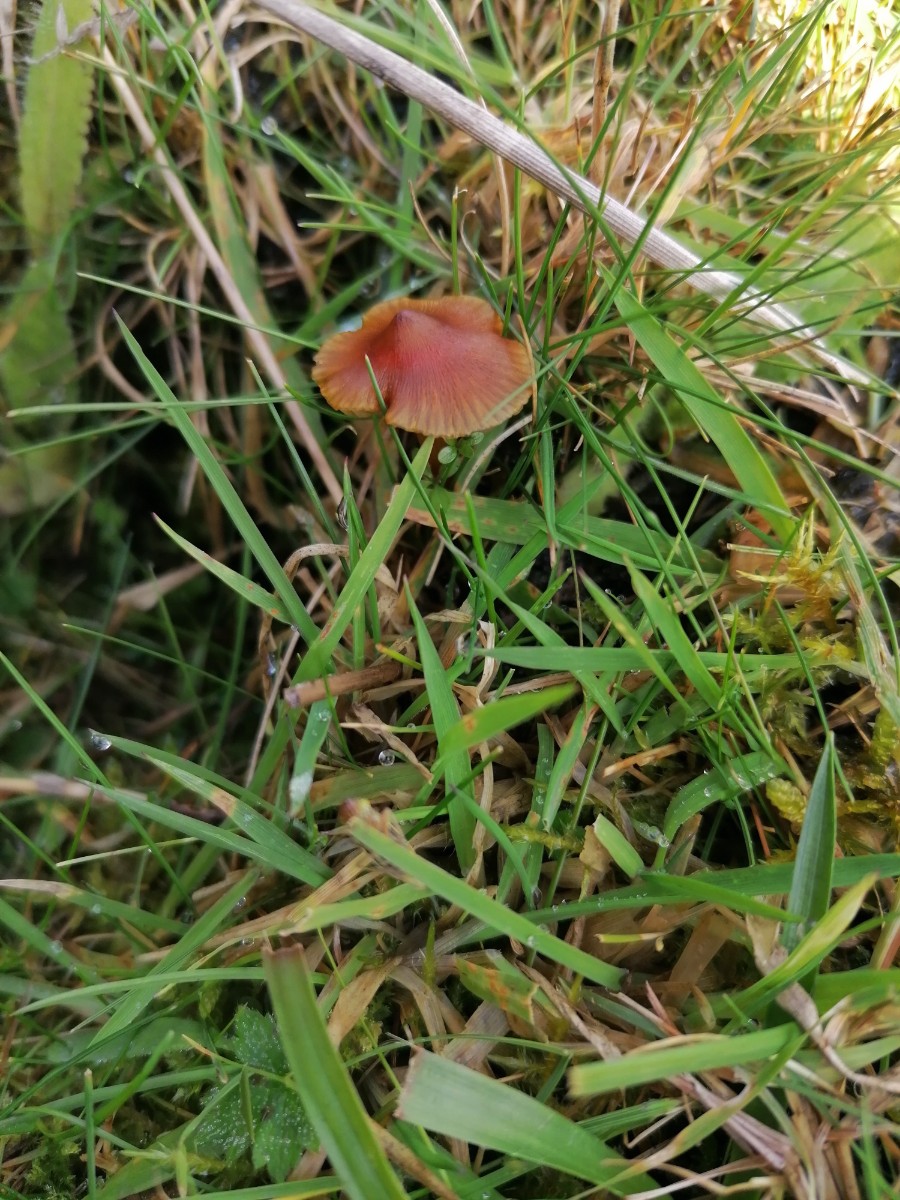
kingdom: Fungi
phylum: Basidiomycota
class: Agaricomycetes
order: Agaricales
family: Hygrophoraceae
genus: Hygrocybe
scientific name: Hygrocybe conica
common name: kegle-vokshat
